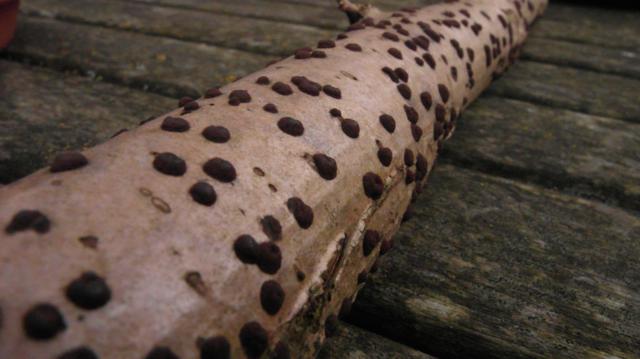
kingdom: Fungi
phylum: Ascomycota
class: Sordariomycetes
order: Xylariales
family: Hypoxylaceae
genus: Hypoxylon
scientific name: Hypoxylon fuscum
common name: kegleformet kulbær
